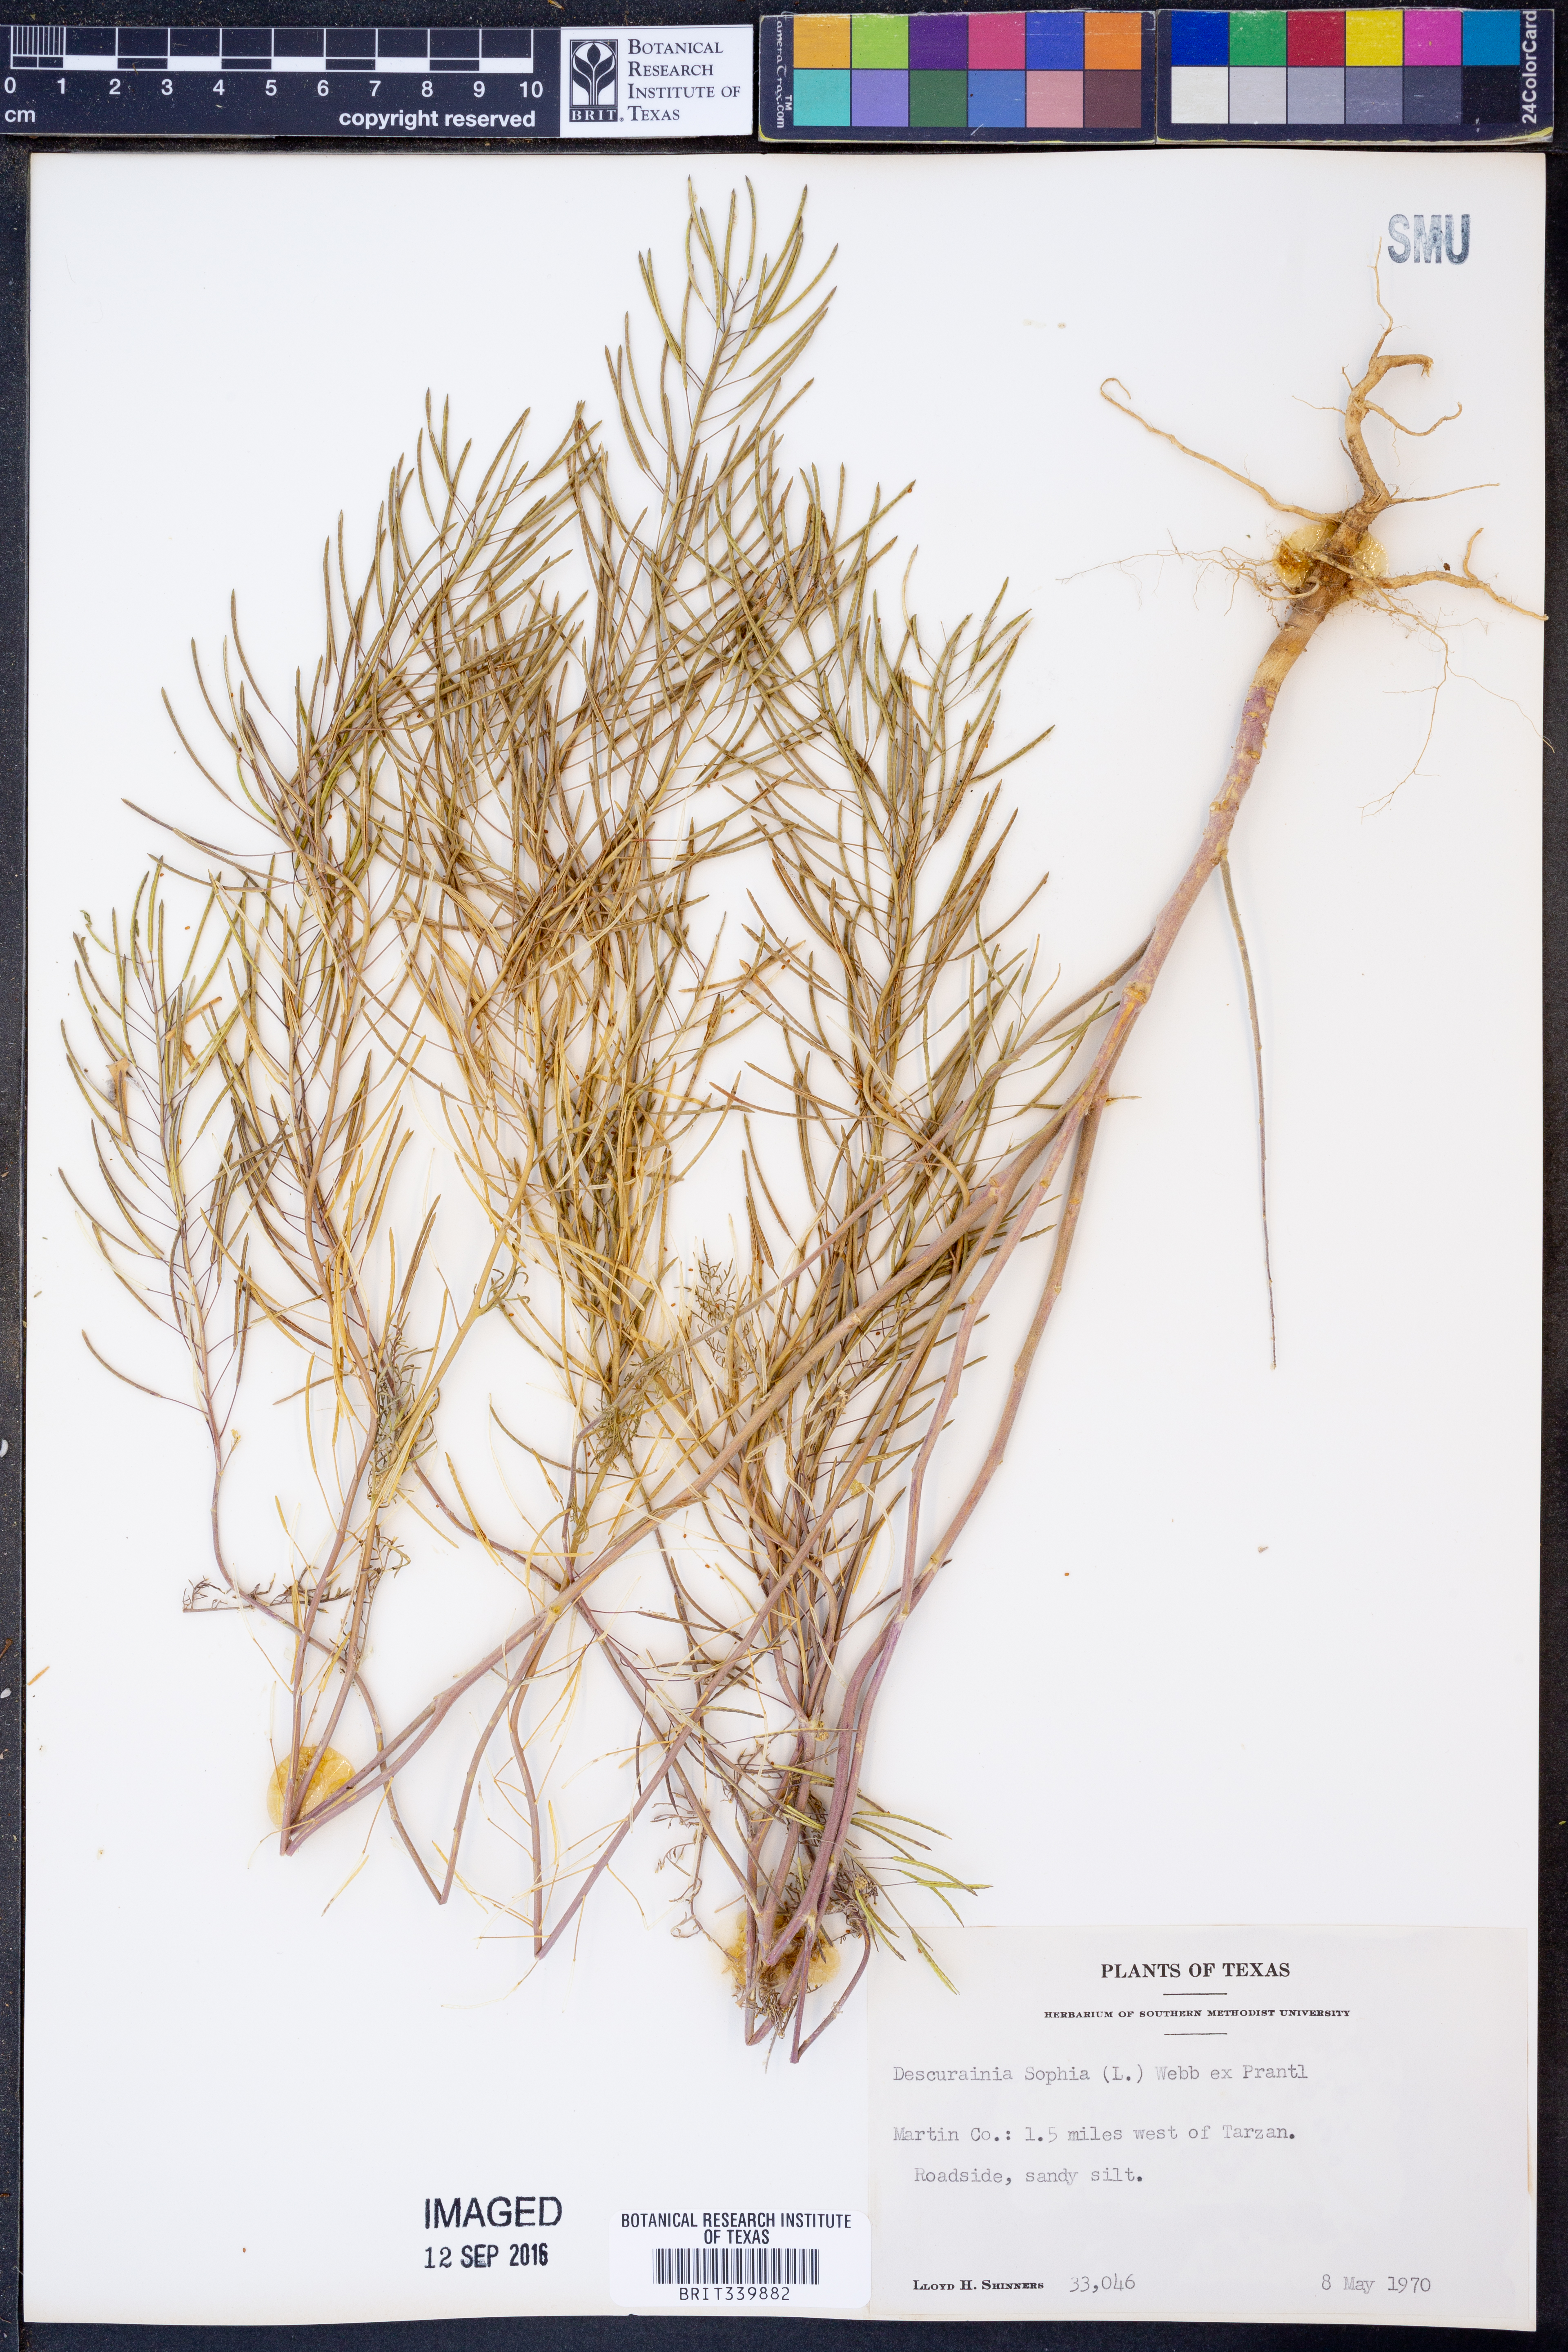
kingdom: Plantae
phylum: Tracheophyta
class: Magnoliopsida
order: Brassicales
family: Brassicaceae
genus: Descurainia
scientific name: Descurainia sophia
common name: Flixweed
